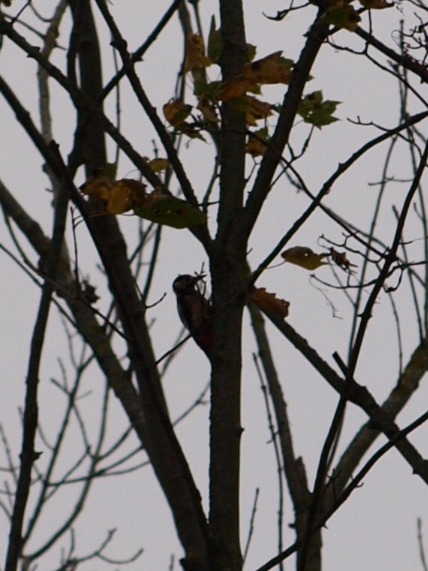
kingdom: Animalia
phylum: Chordata
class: Aves
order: Piciformes
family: Picidae
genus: Dendrocopos
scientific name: Dendrocopos major
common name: Stor flagspætte
